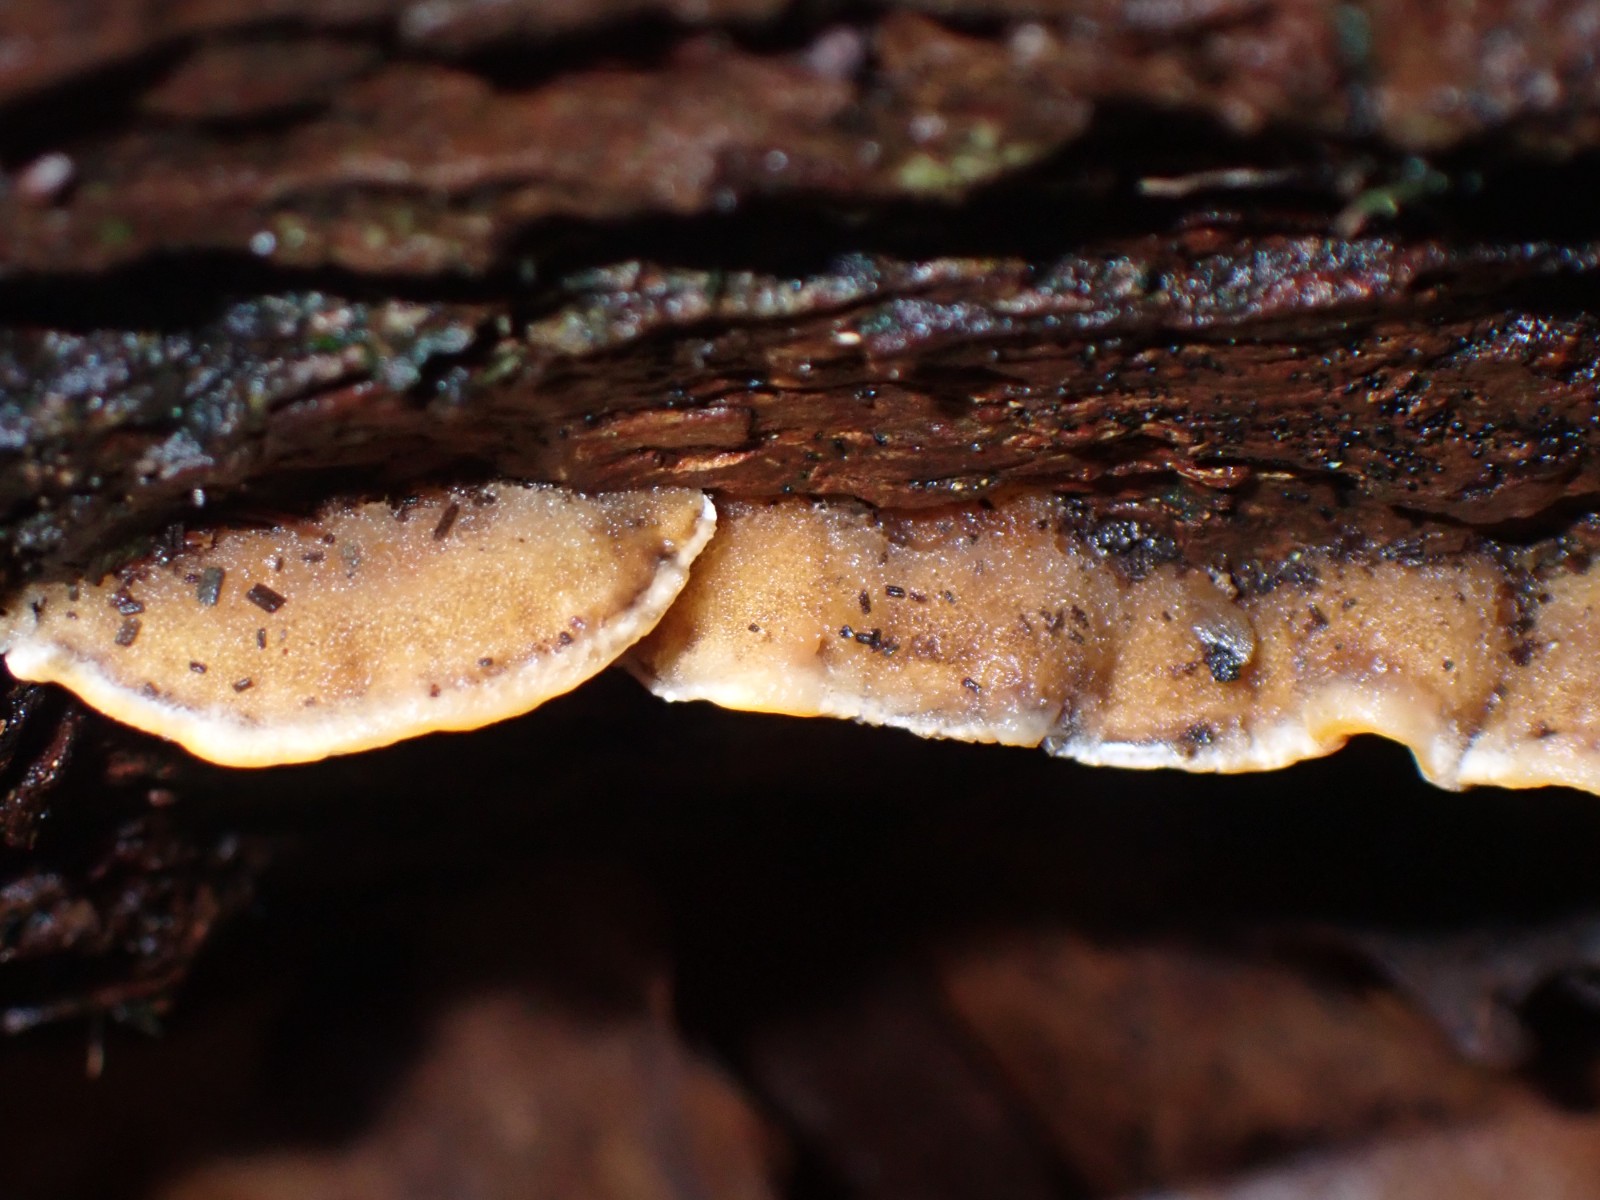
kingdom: Fungi
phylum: Basidiomycota
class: Agaricomycetes
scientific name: Agaricomycetes
